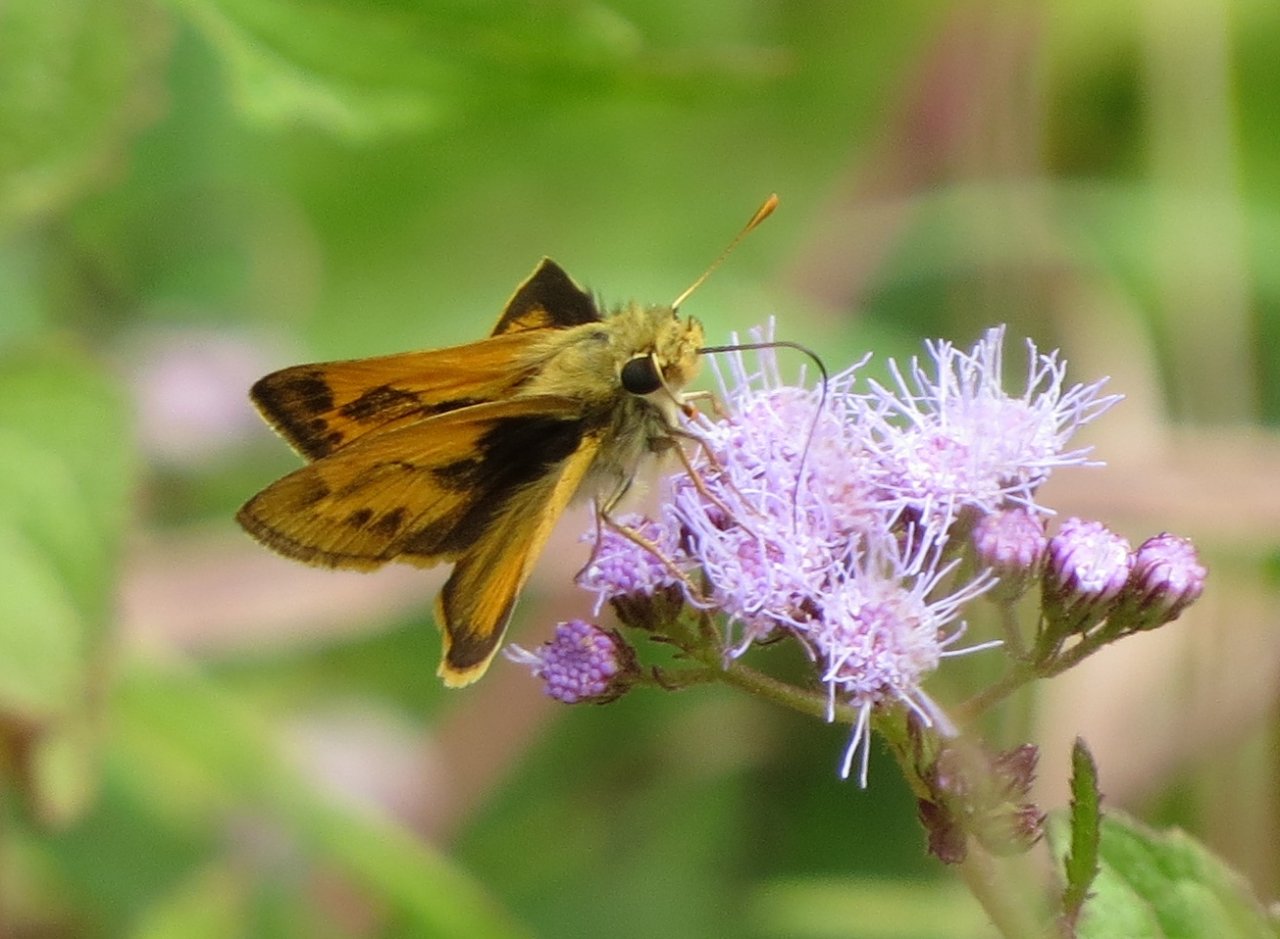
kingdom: Animalia
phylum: Arthropoda
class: Insecta
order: Lepidoptera
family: Hesperiidae
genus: Polites
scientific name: Polites vibex
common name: Whirlabout
